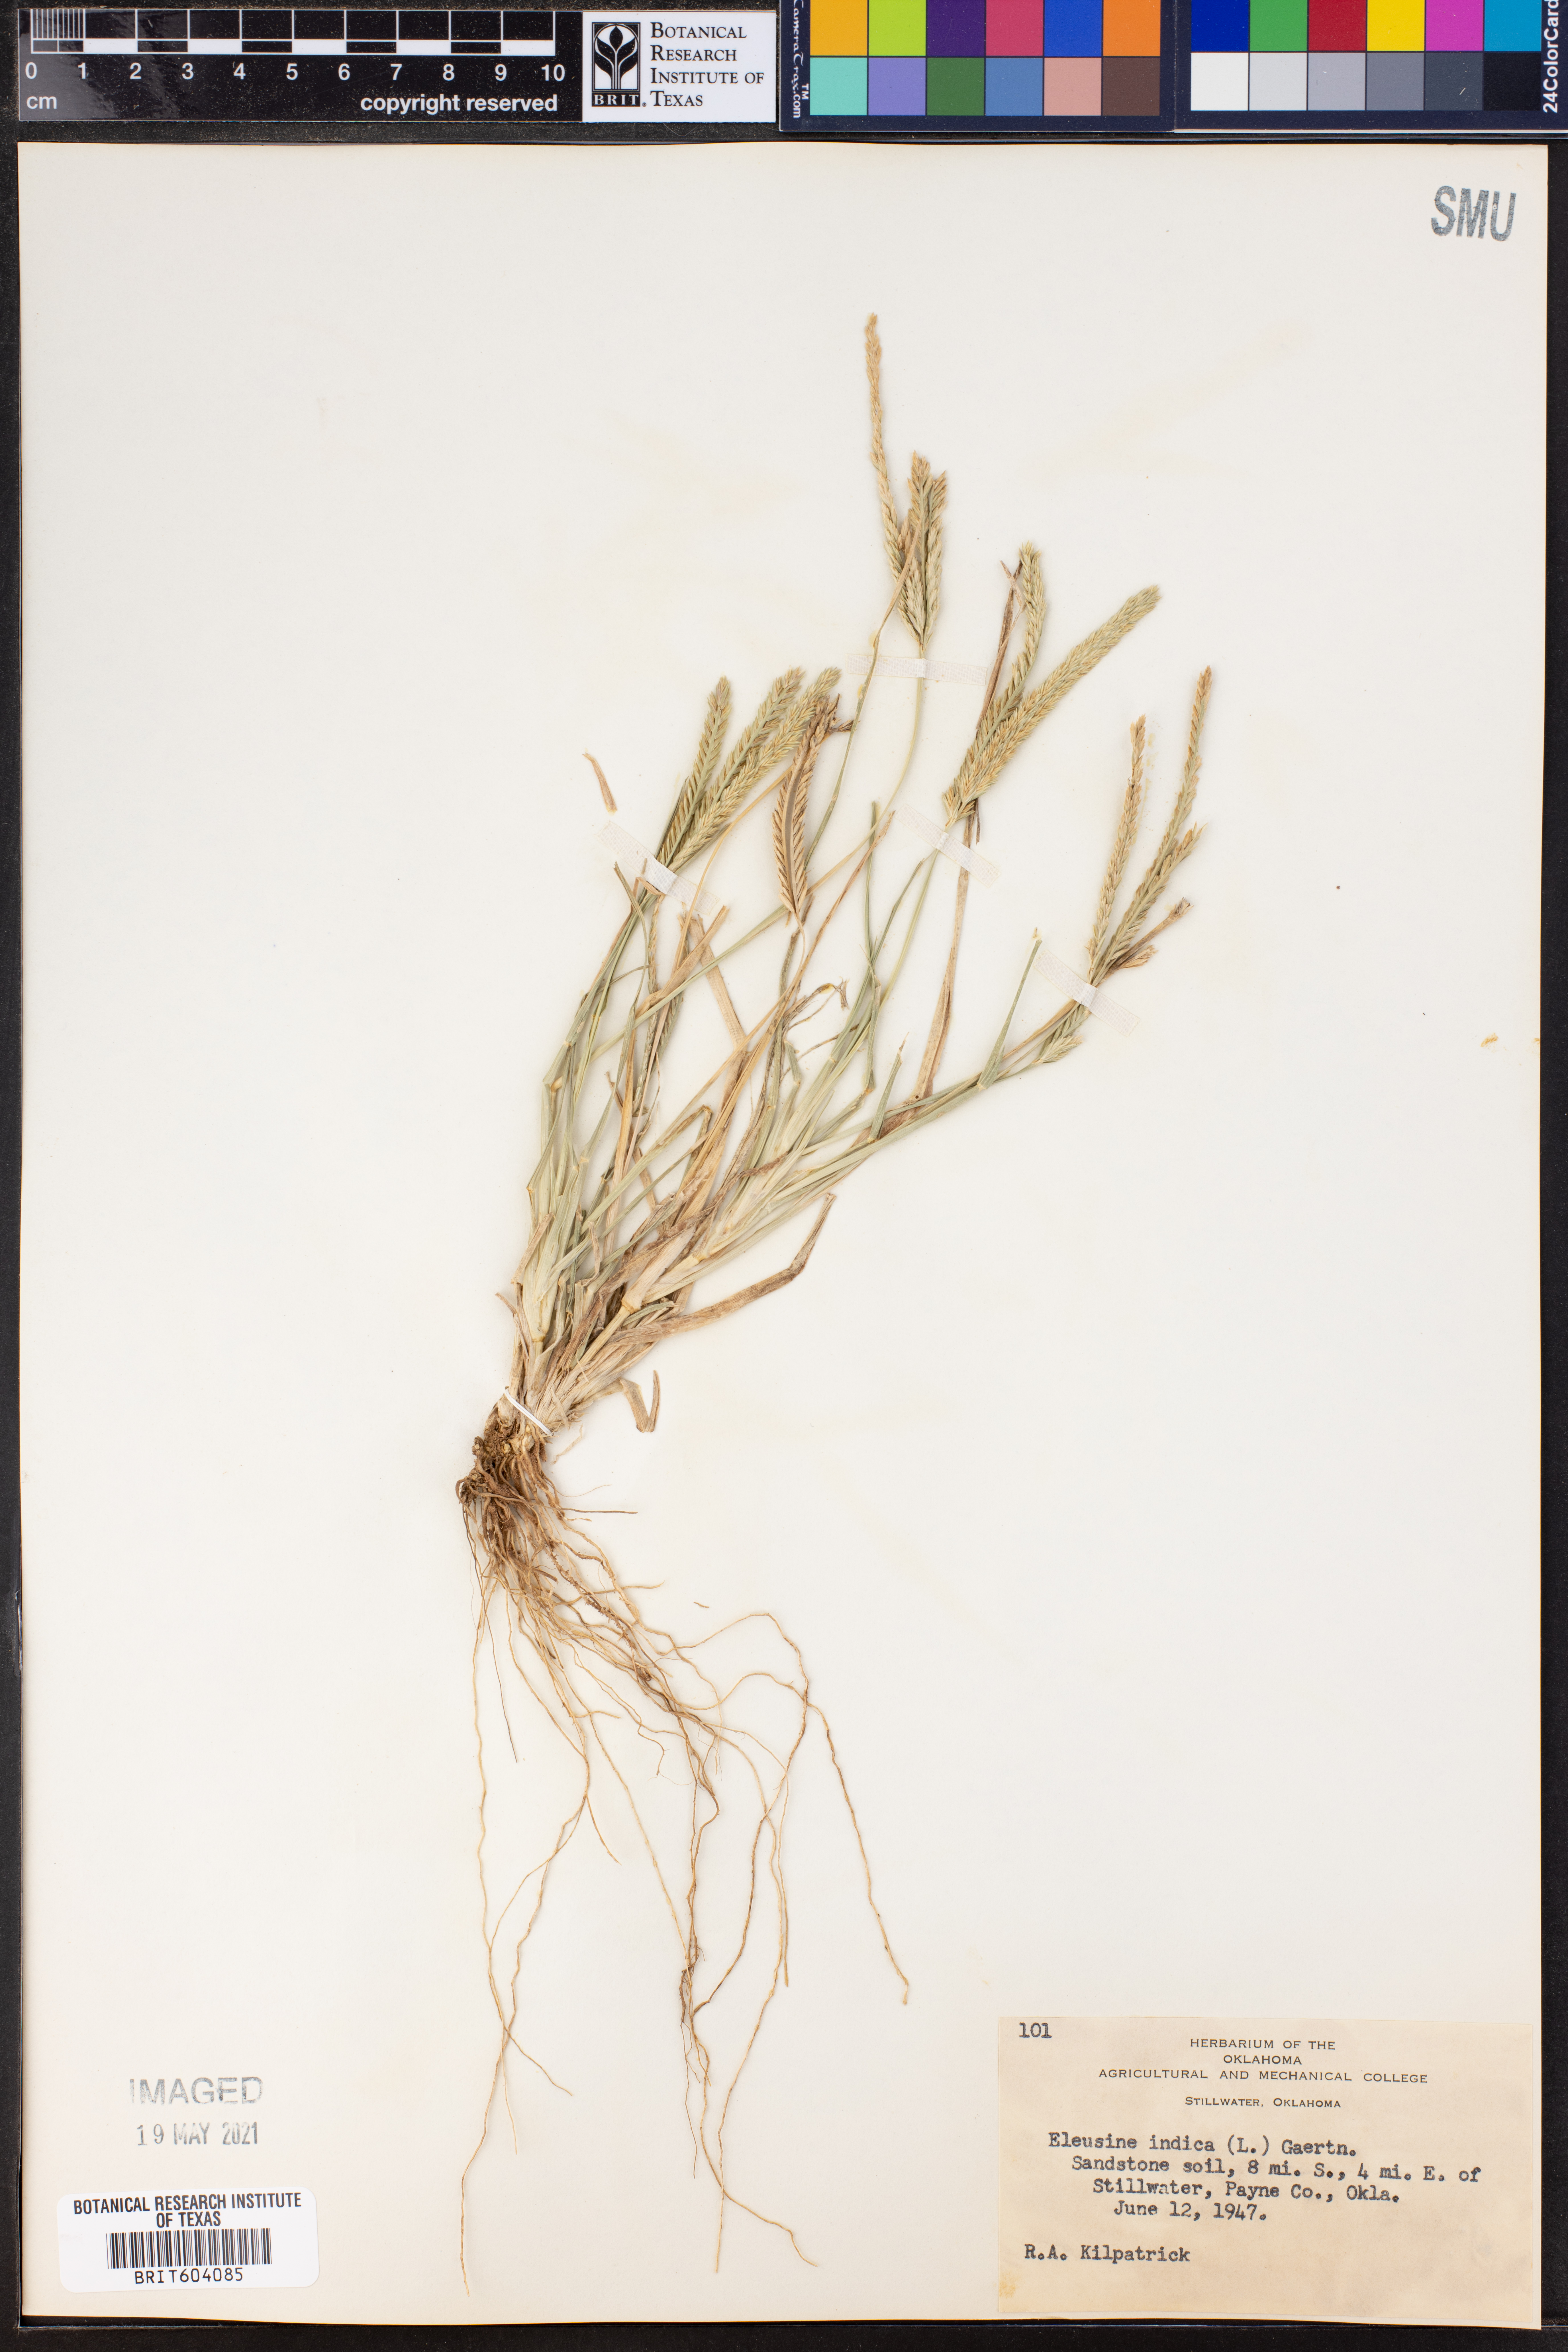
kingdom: Plantae
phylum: Tracheophyta
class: Liliopsida
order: Poales
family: Poaceae
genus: Eleusine
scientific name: Eleusine indica
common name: Yard-grass
